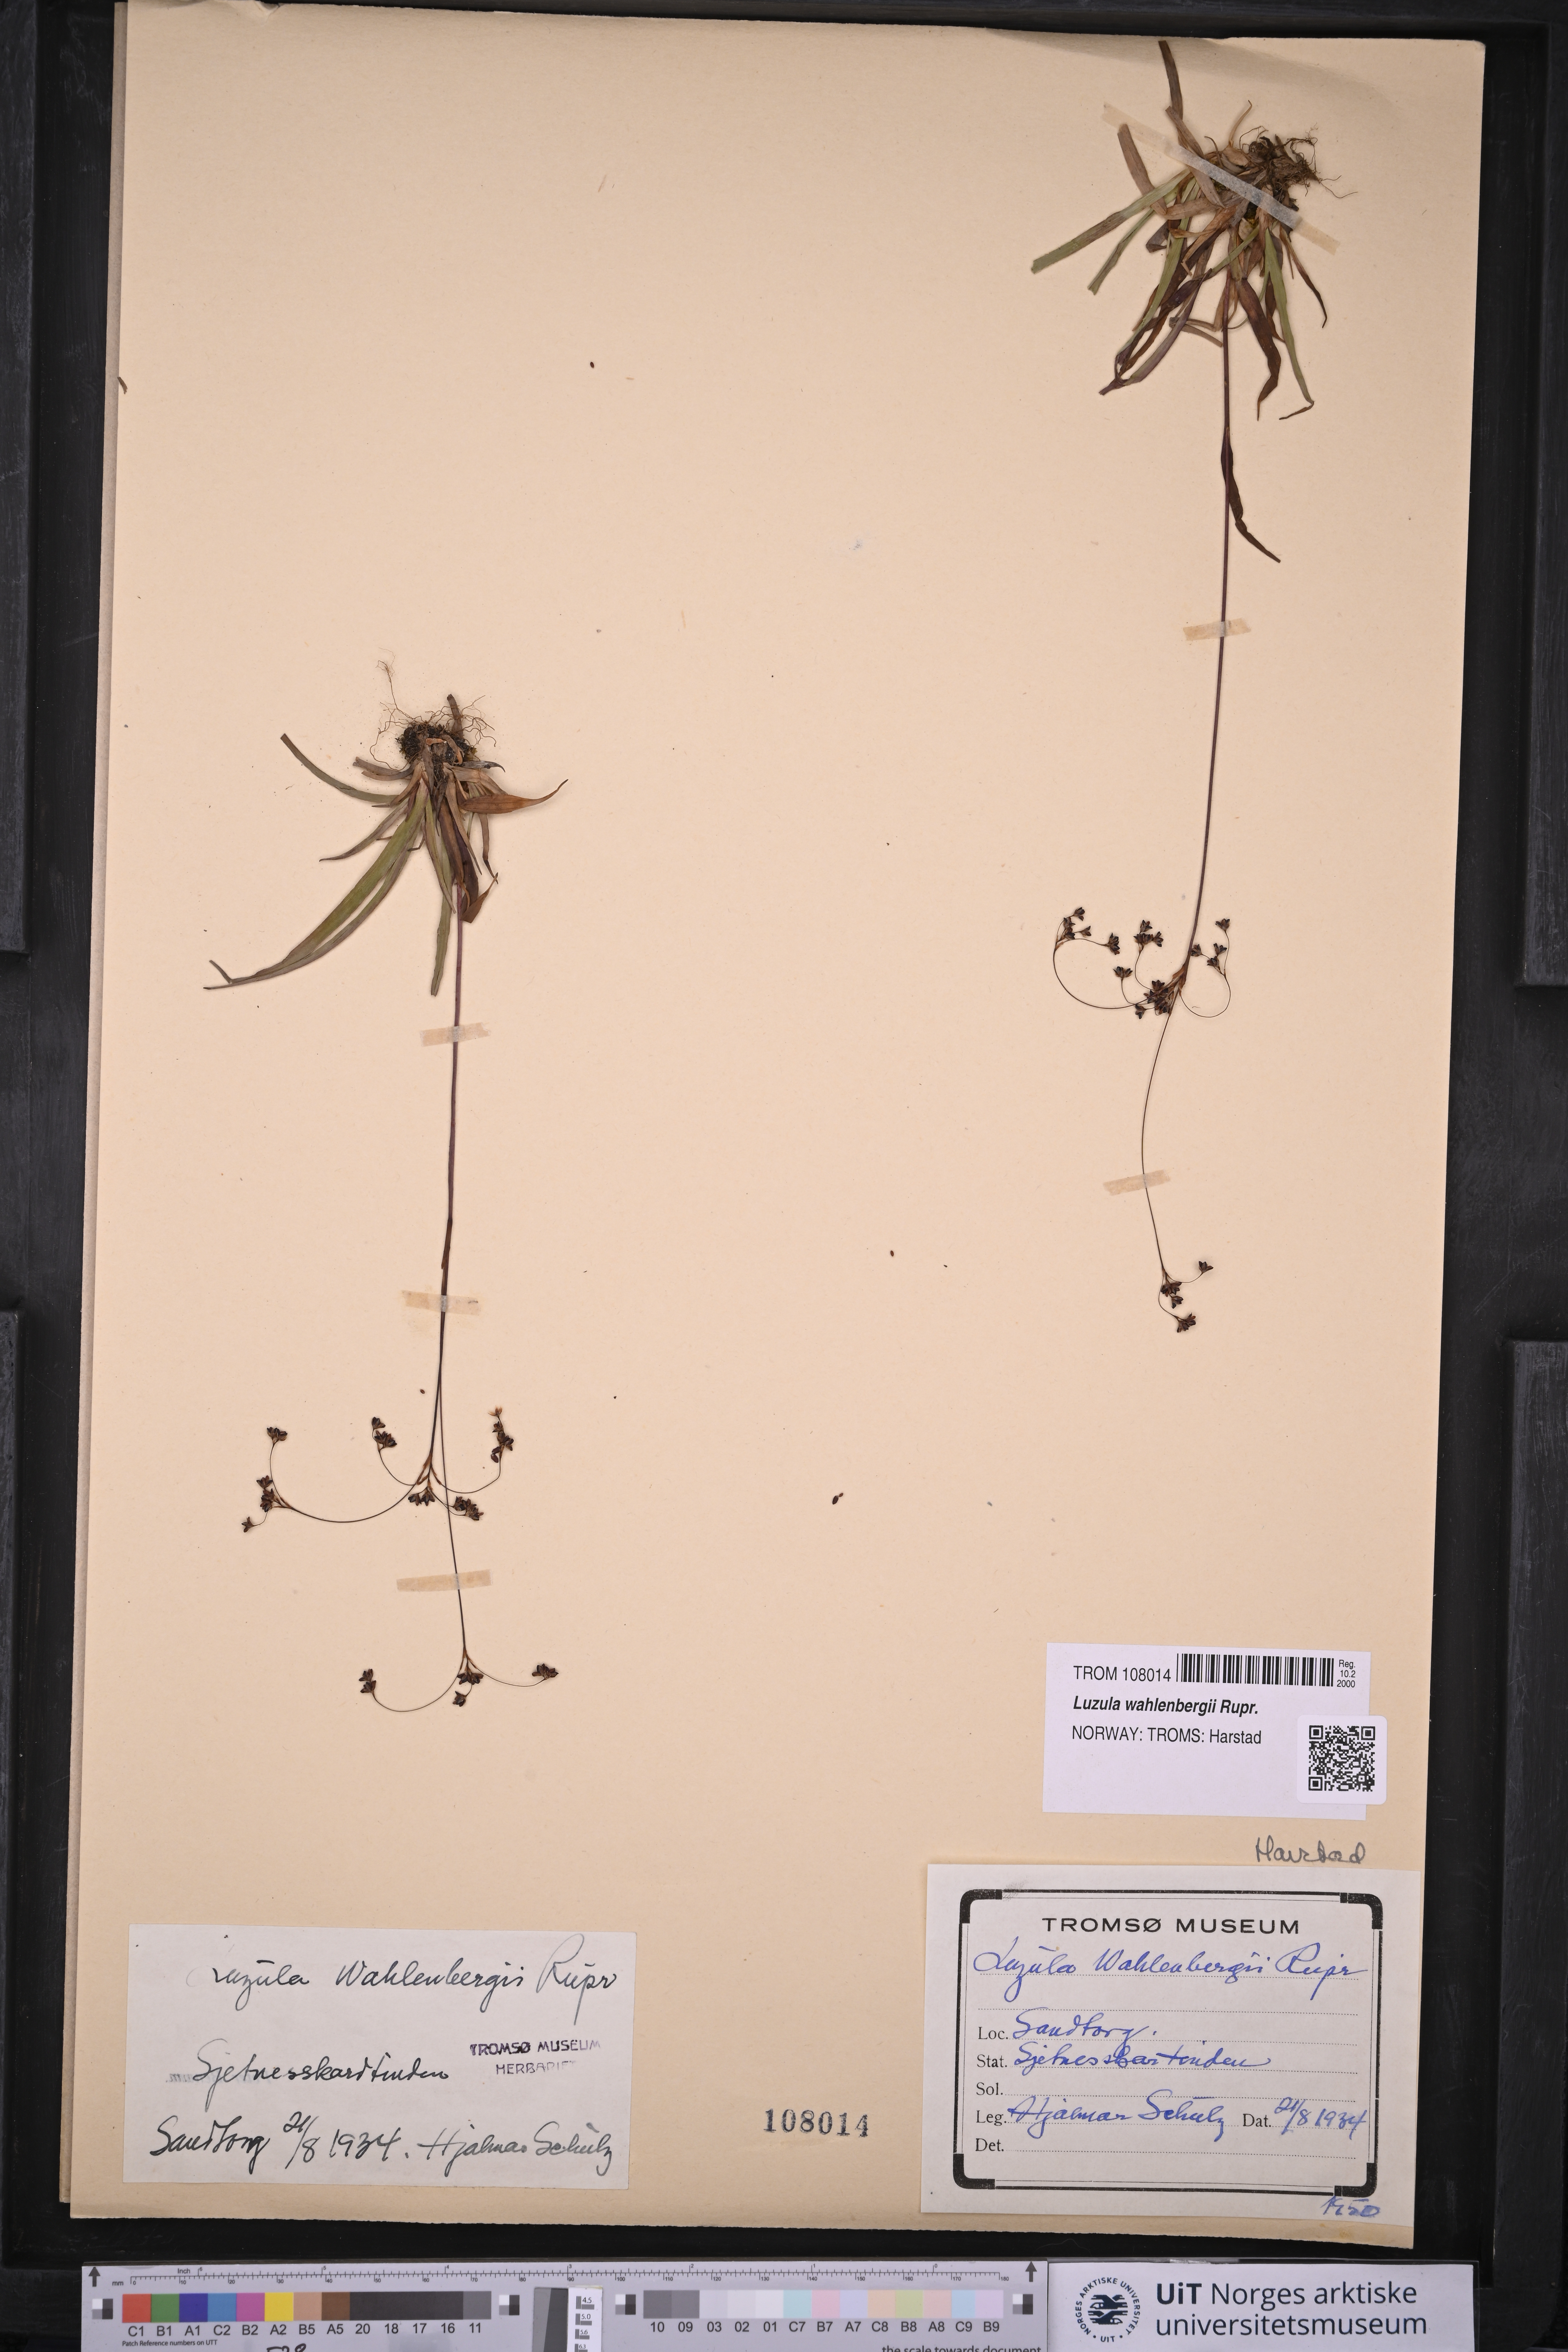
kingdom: Plantae
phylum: Tracheophyta
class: Liliopsida
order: Poales
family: Juncaceae
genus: Luzula
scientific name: Luzula wahlenbergii
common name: Wahlenberg's wood-rush
